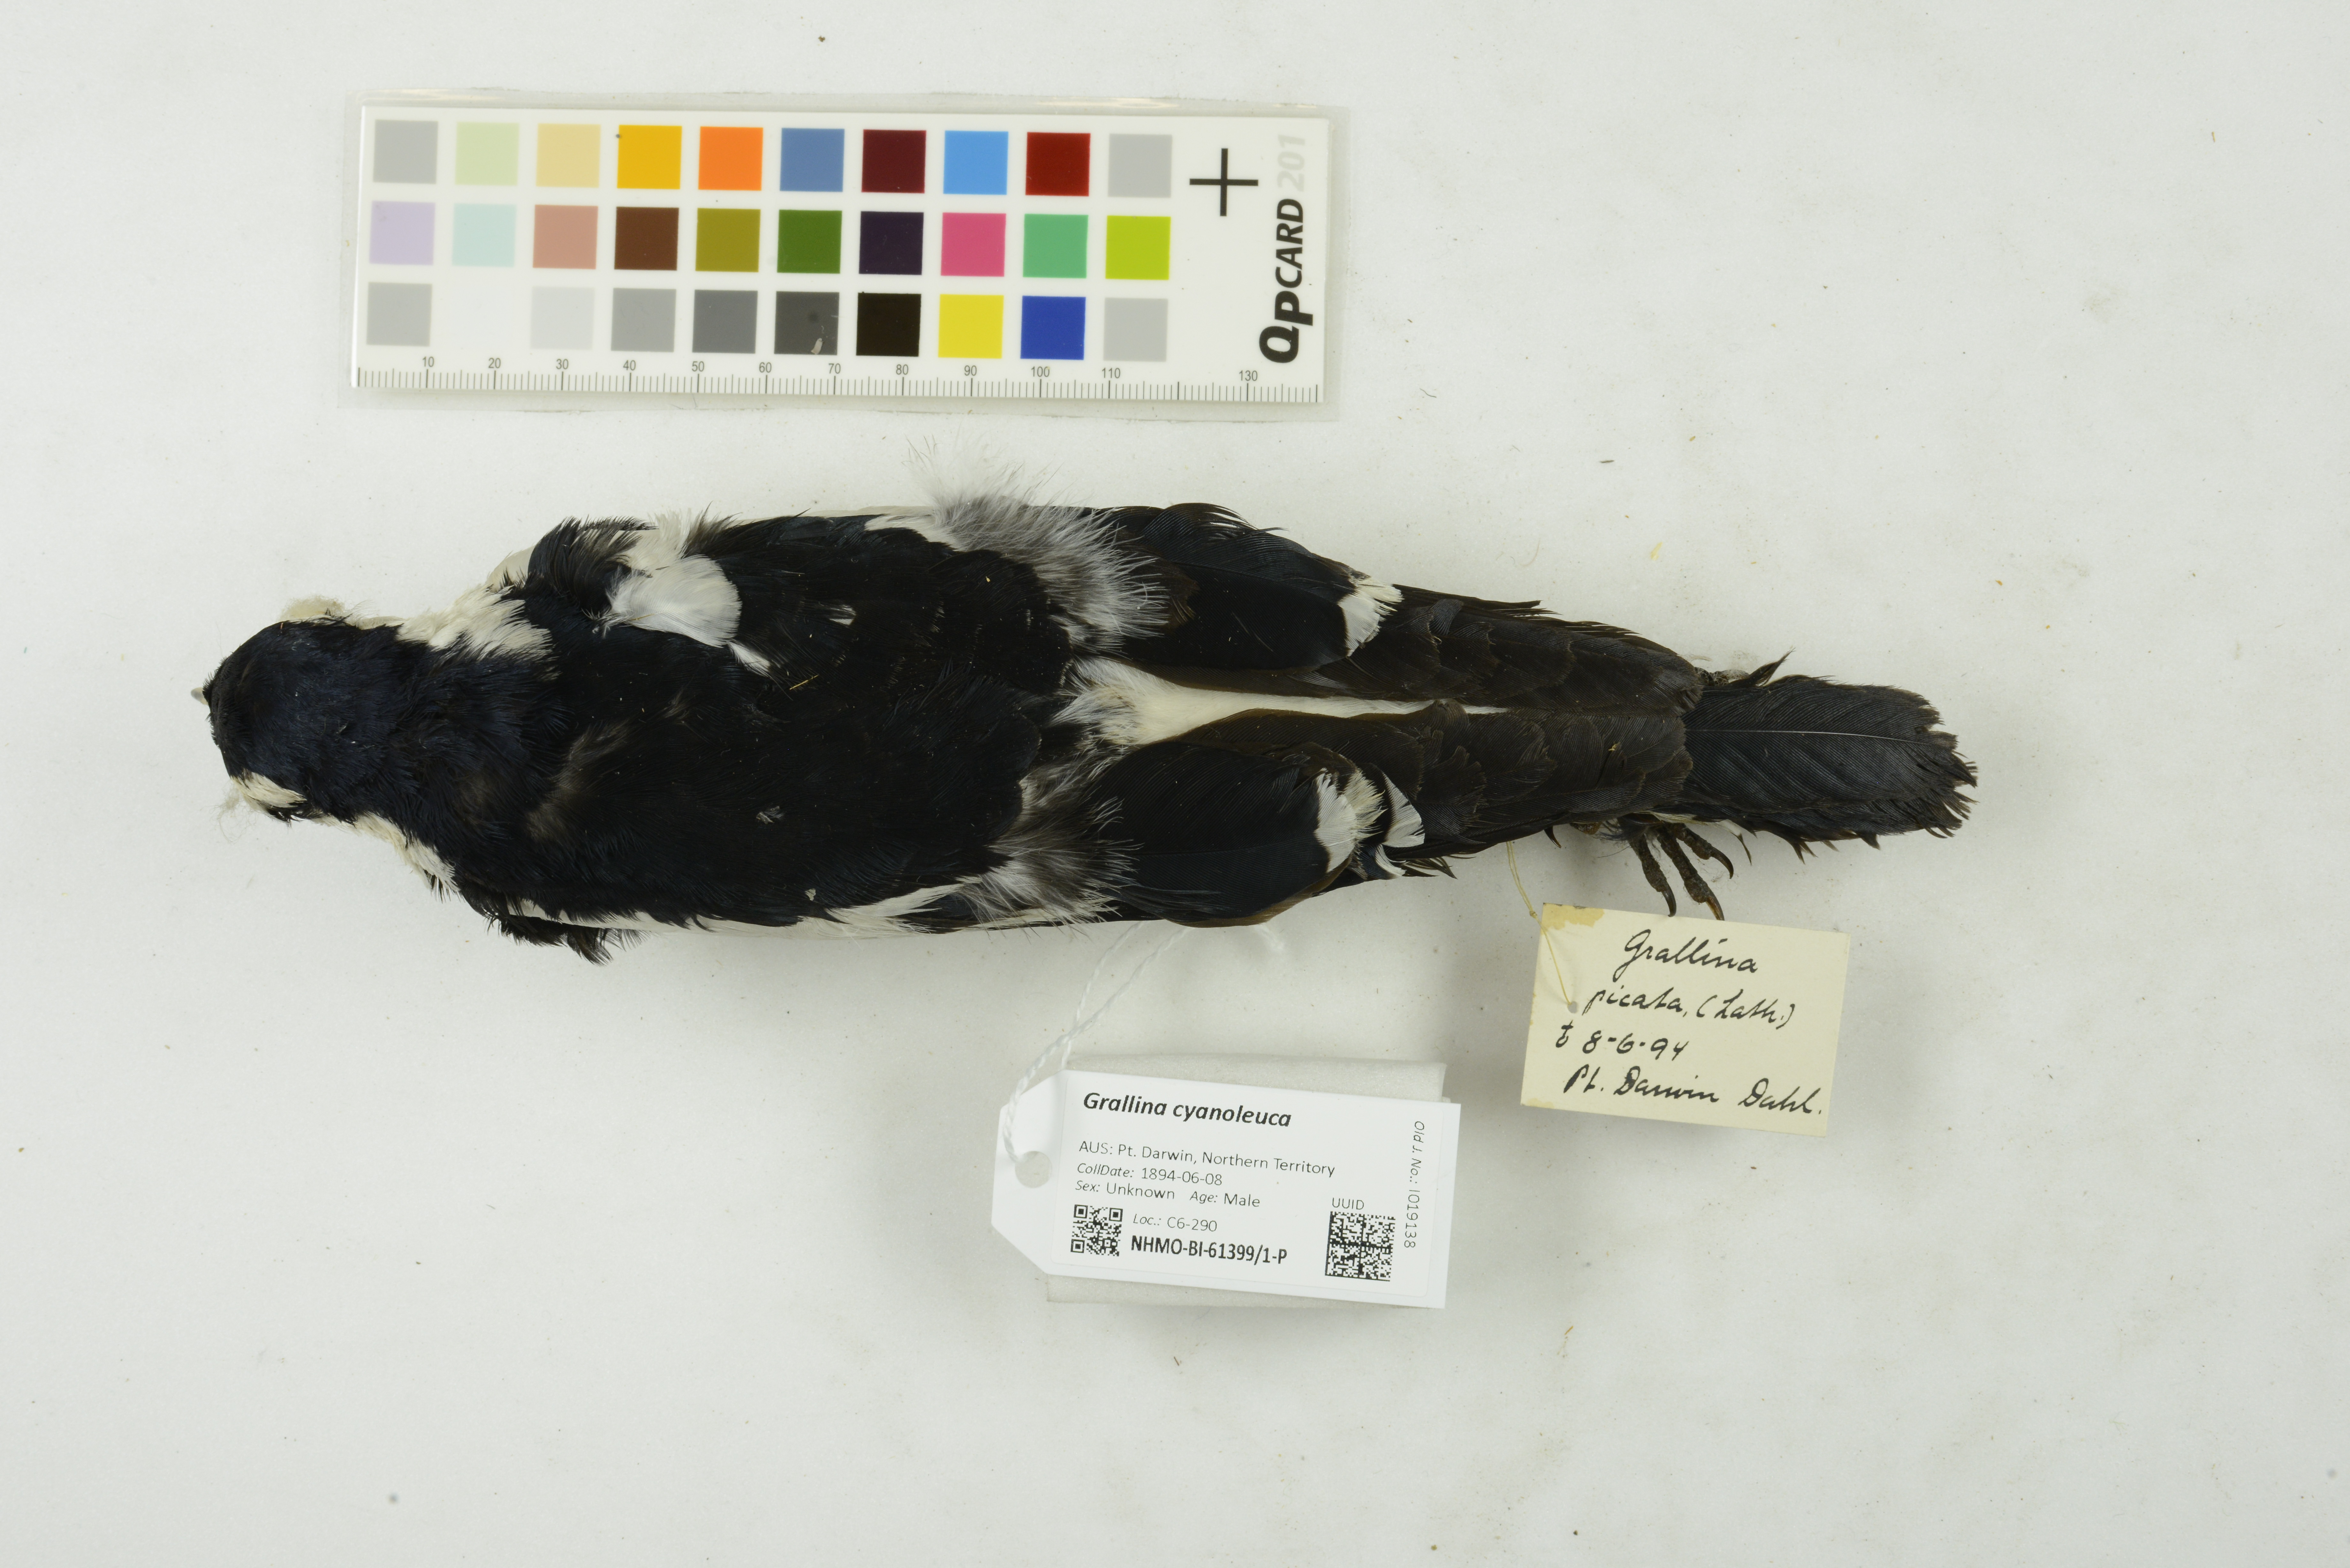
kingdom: Animalia
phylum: Chordata
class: Aves
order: Passeriformes
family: Monarchidae
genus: Grallina
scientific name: Grallina cyanoleuca
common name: Magpie-lark
